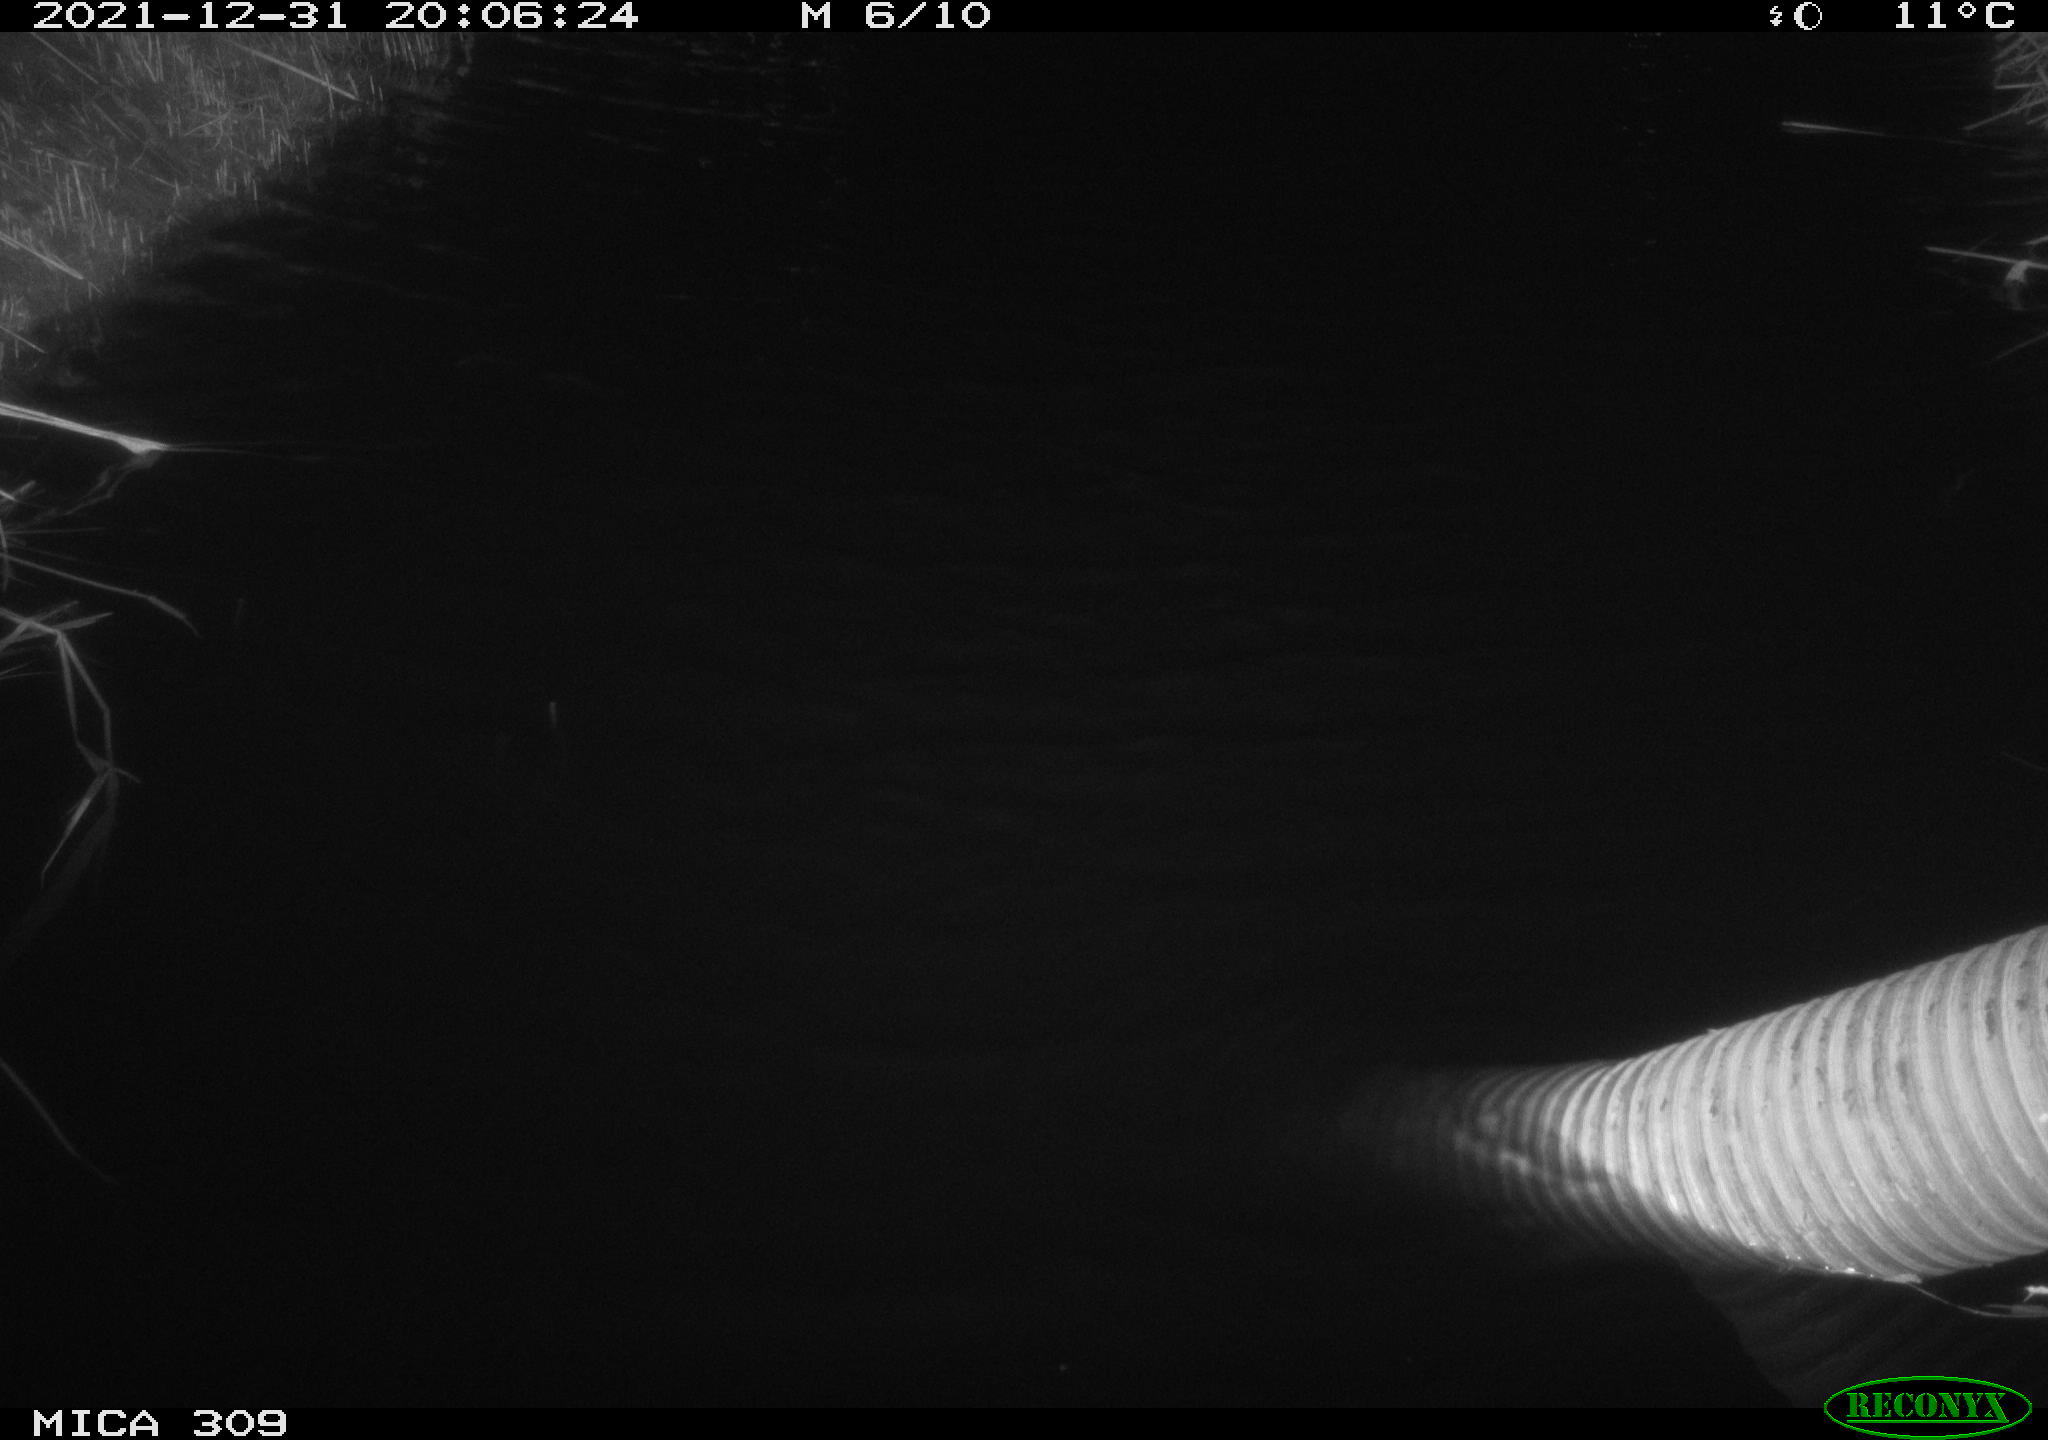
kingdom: Animalia
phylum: Chordata
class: Mammalia
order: Rodentia
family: Muridae
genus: Rattus
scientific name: Rattus norvegicus
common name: Brown rat
